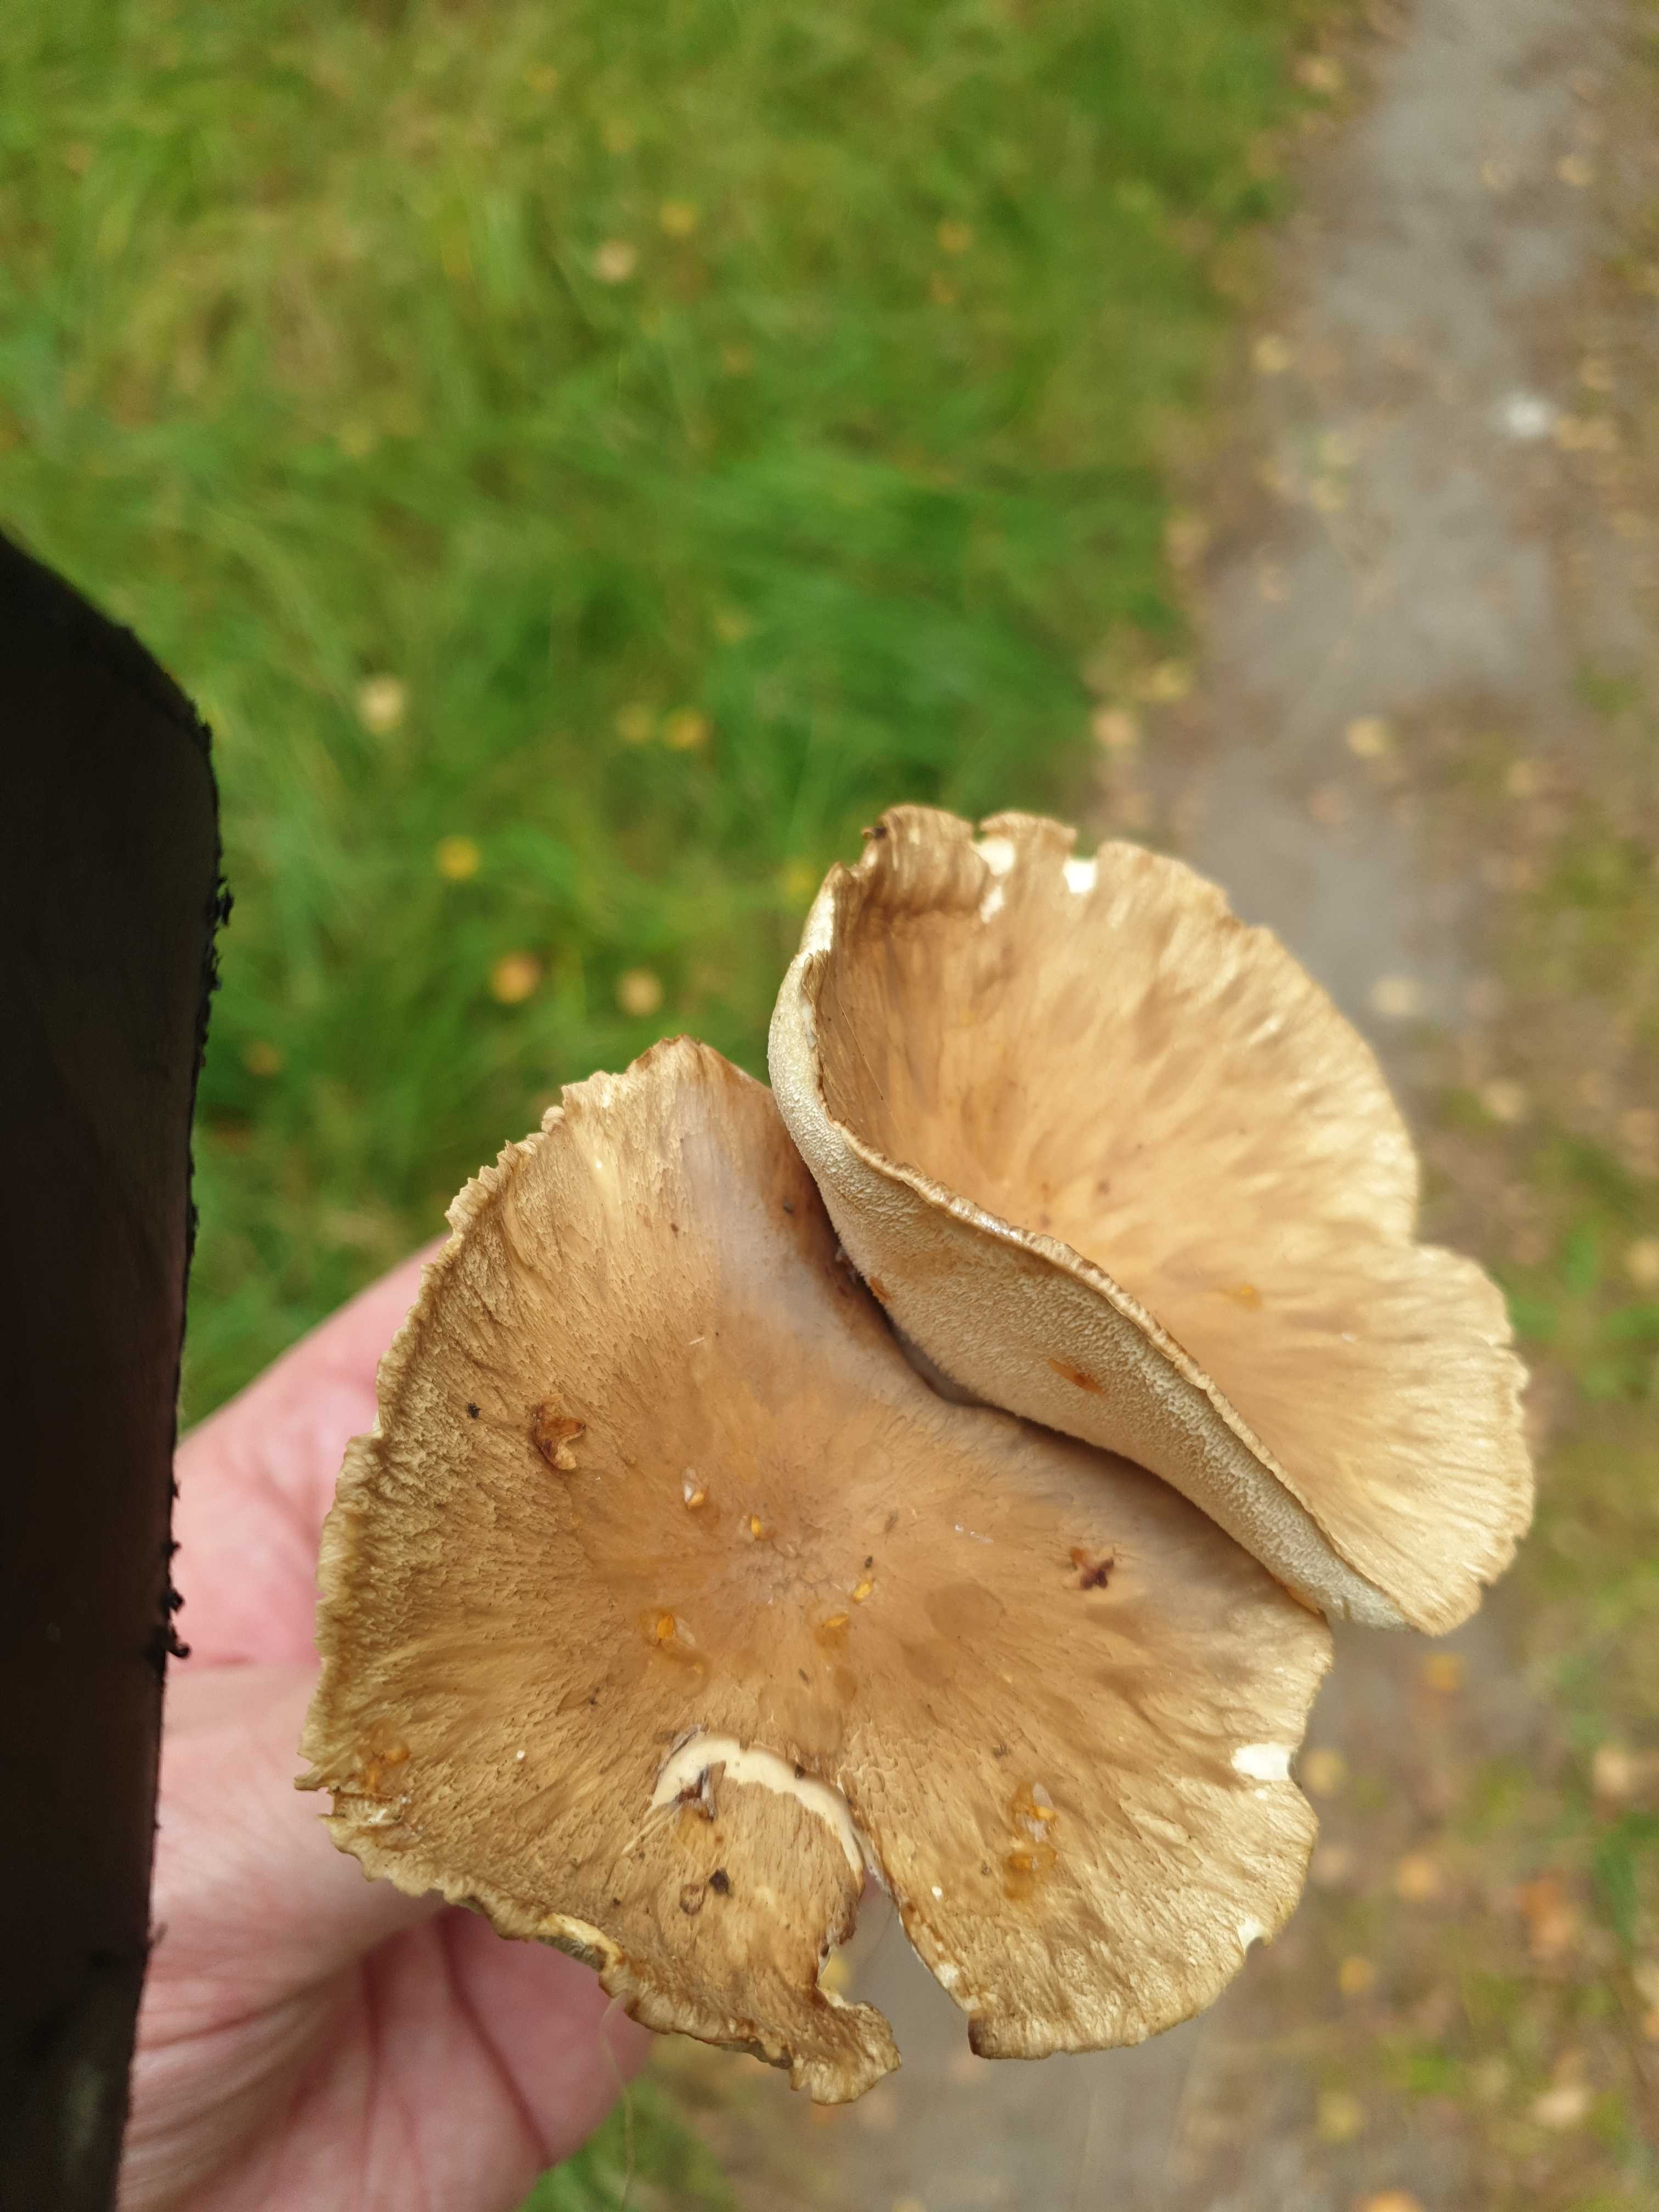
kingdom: Fungi
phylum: Basidiomycota
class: Agaricomycetes
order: Polyporales
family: Polyporaceae
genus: Picipes
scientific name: Picipes melanopus
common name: sortfodet stilkporesvamp
